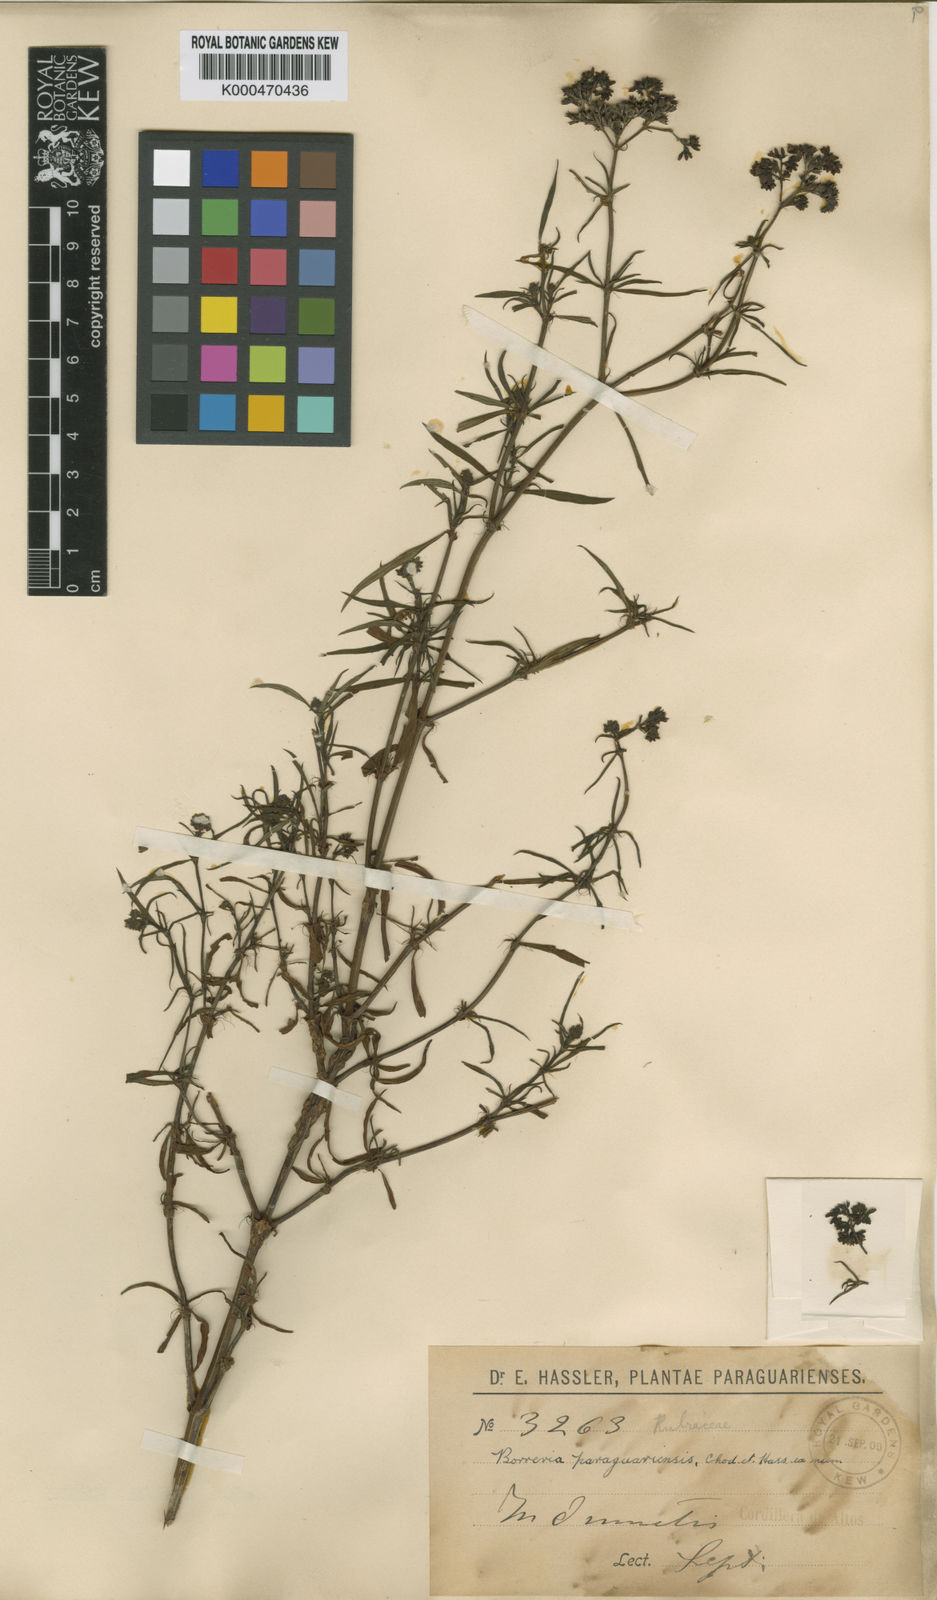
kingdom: Plantae
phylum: Tracheophyta
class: Magnoliopsida
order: Gentianales
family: Rubiaceae
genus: Galianthe
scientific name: Galianthe laxa
